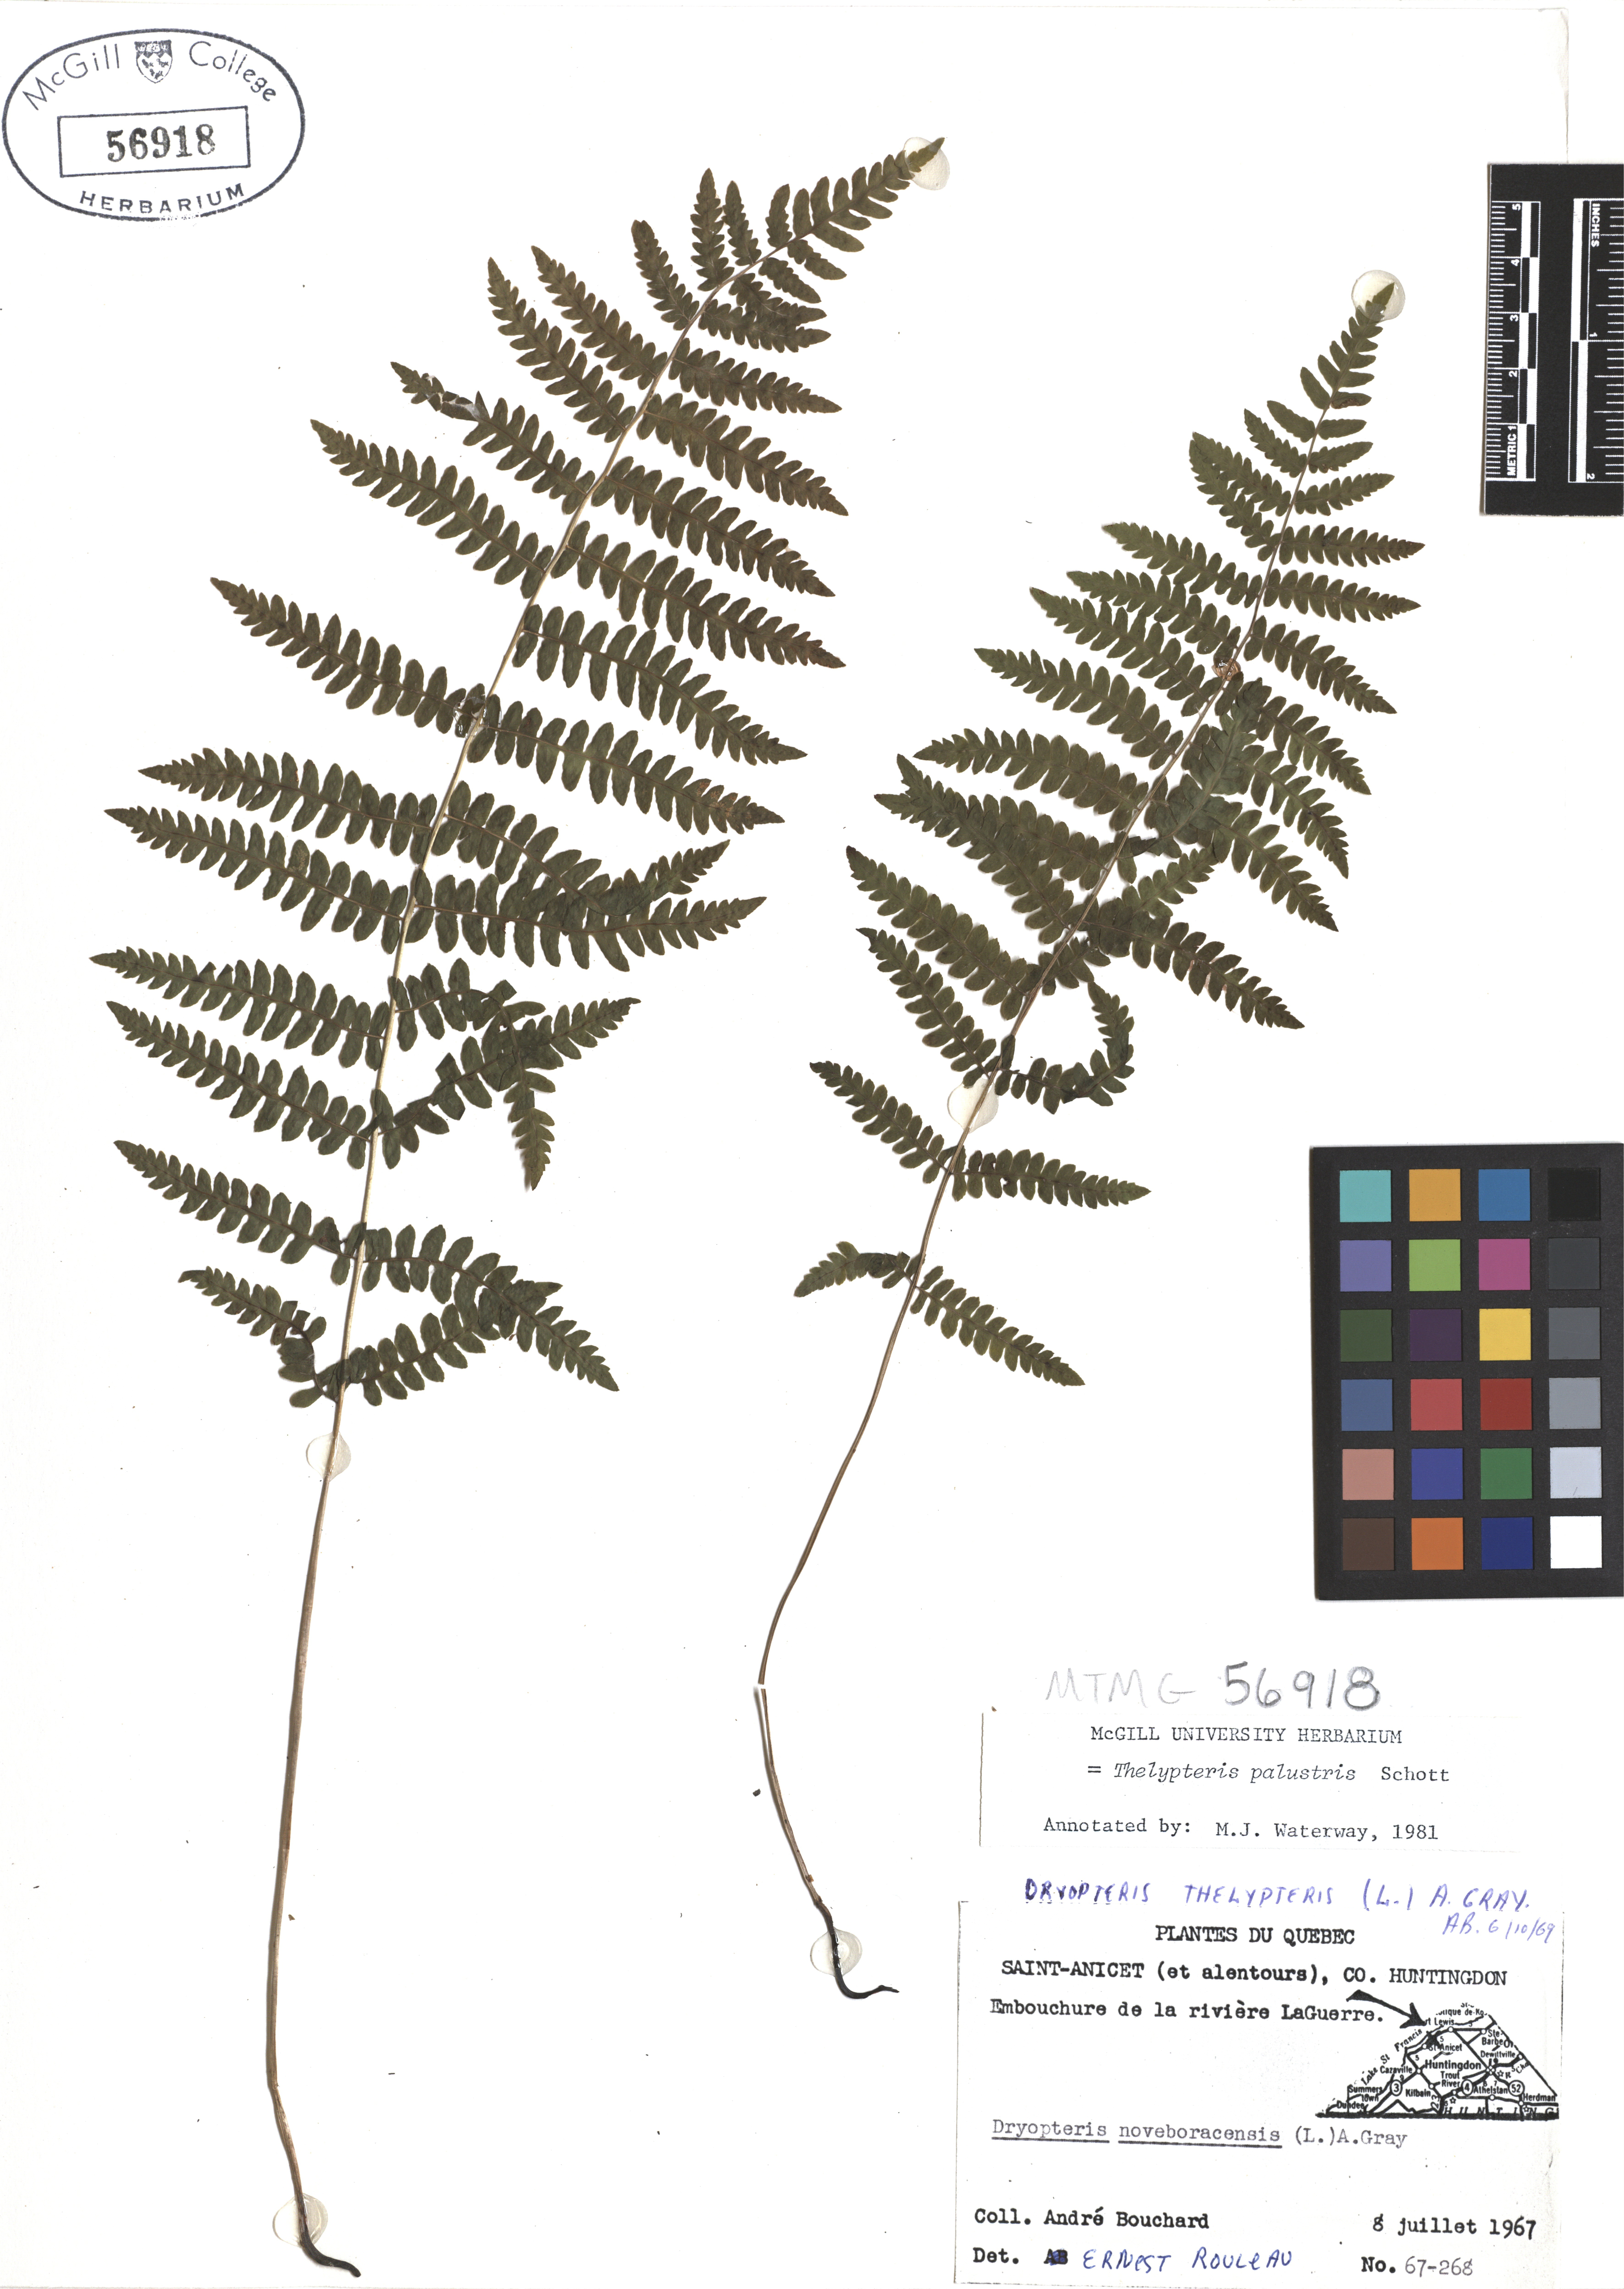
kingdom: Plantae
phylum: Tracheophyta
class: Polypodiopsida
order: Polypodiales
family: Thelypteridaceae
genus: Thelypteris
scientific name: Thelypteris palustris
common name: Marsh fern
